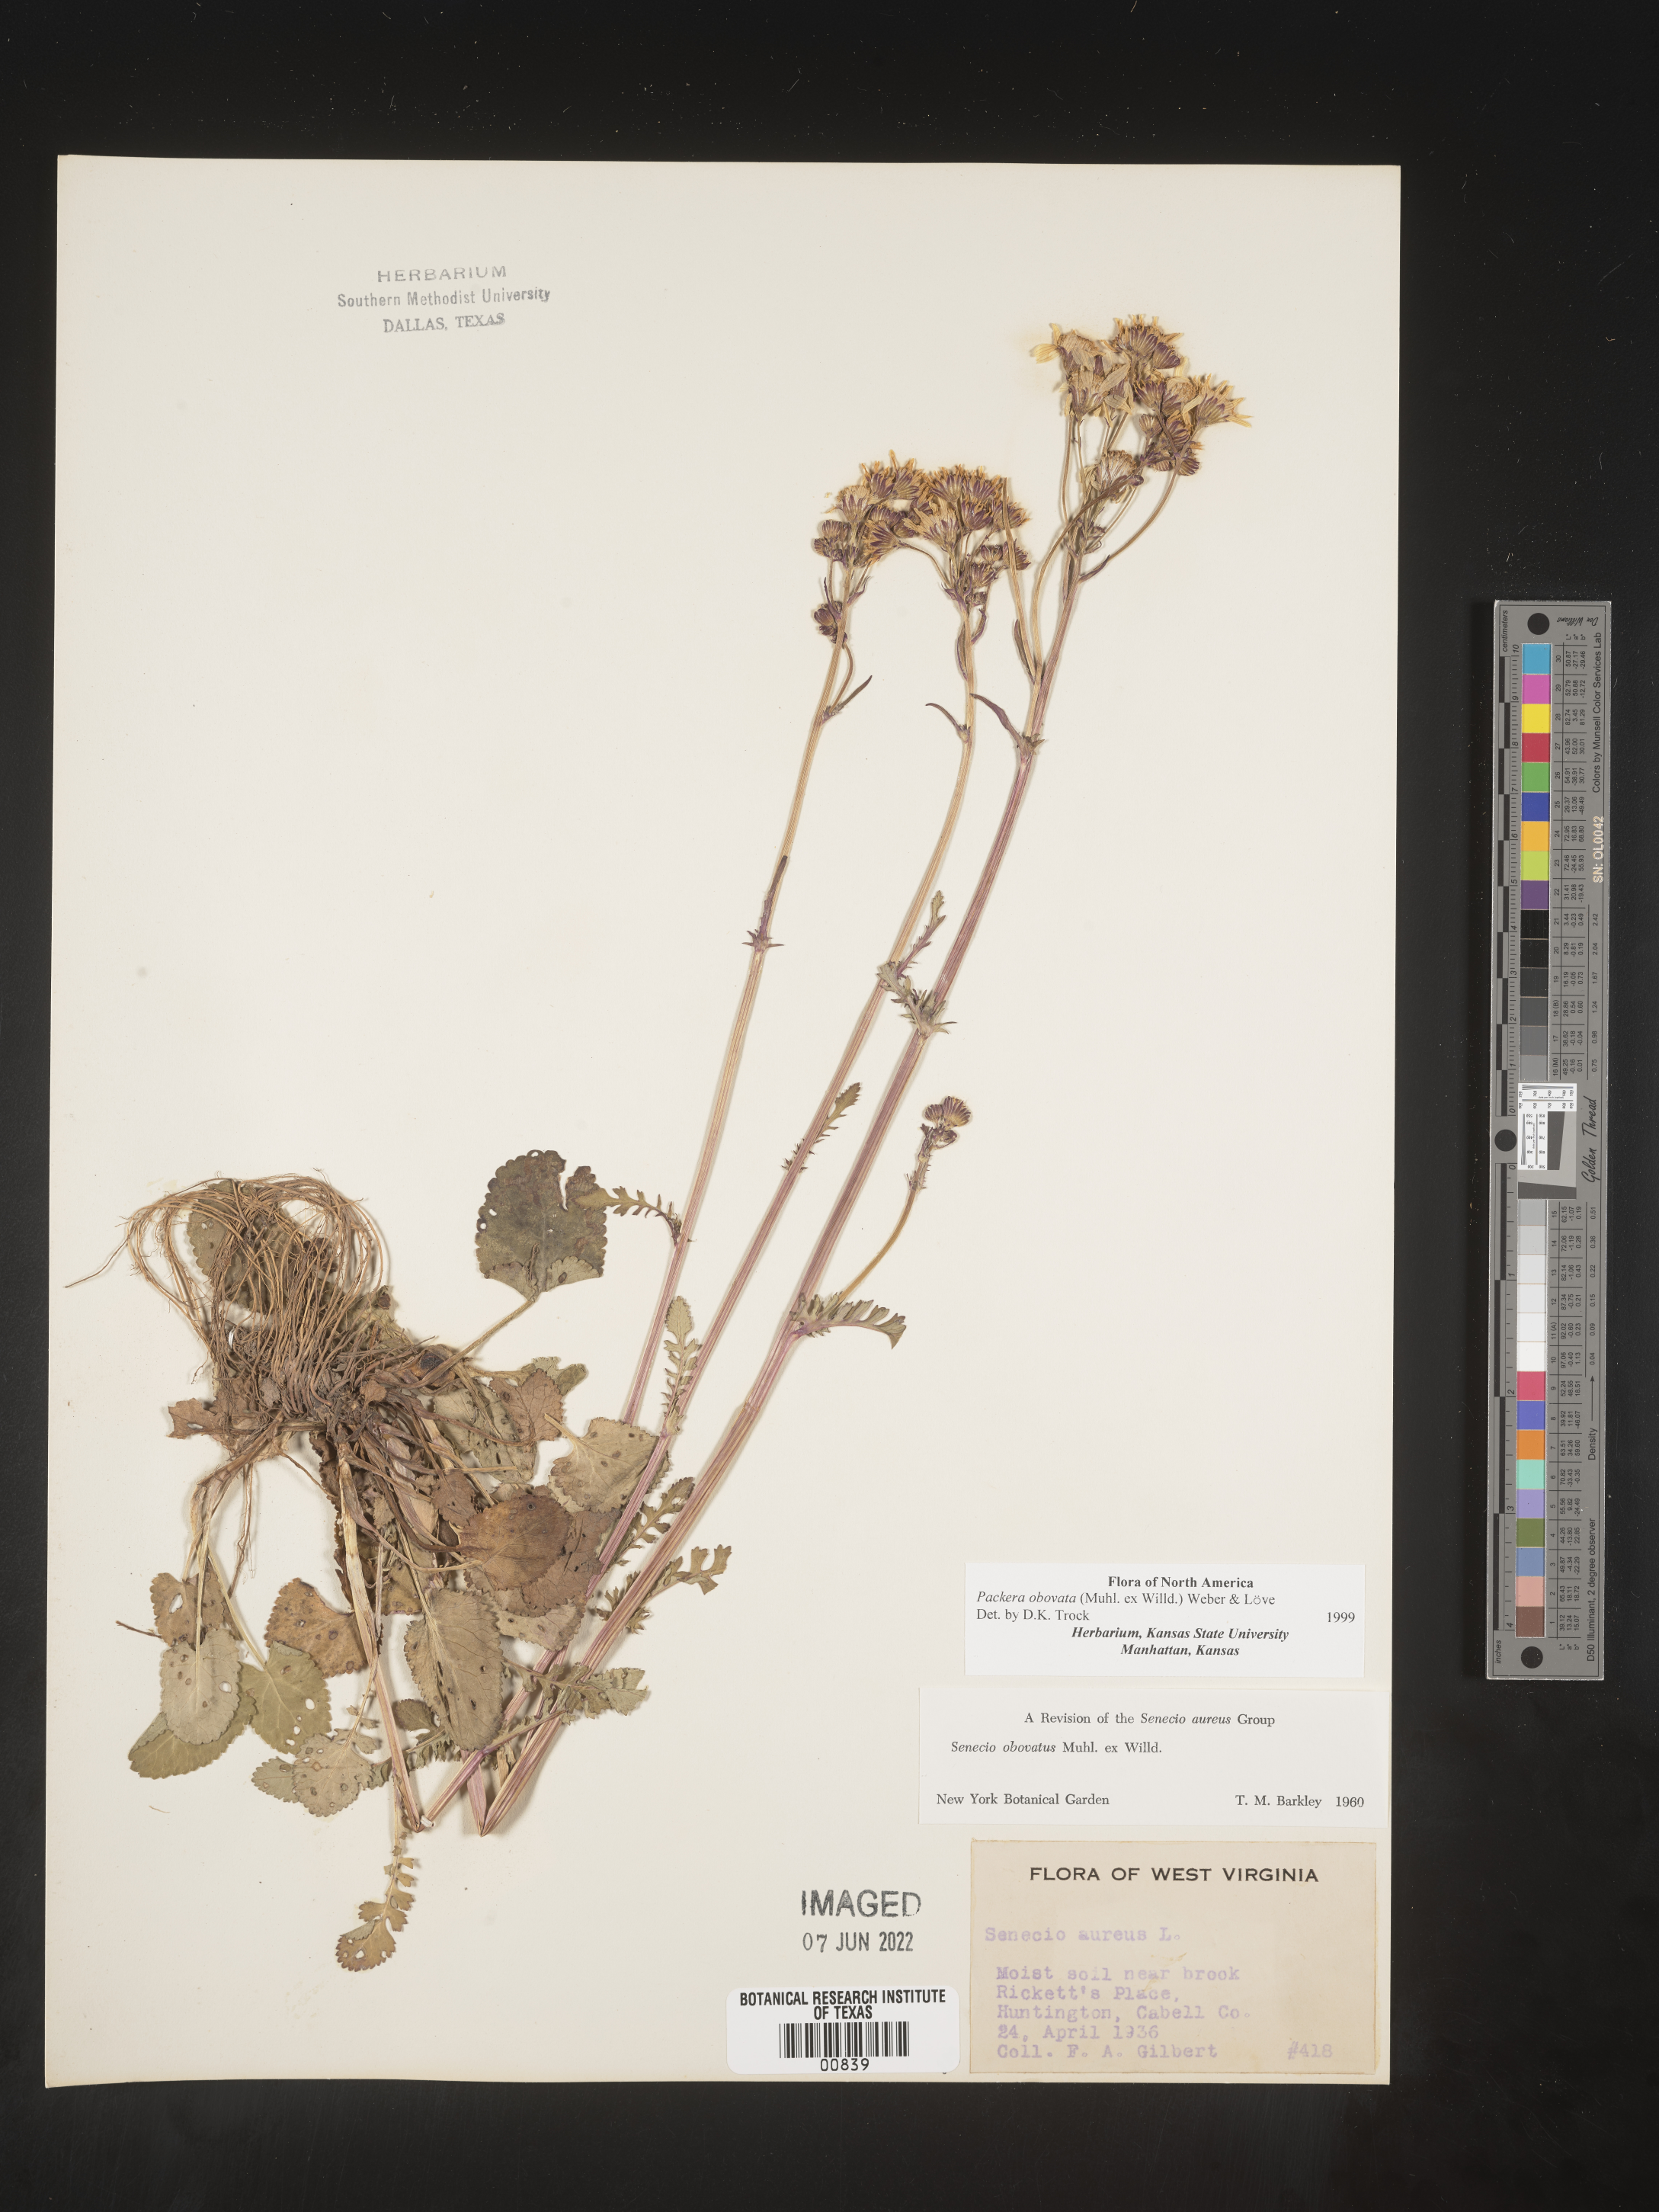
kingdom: Plantae
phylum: Tracheophyta
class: Magnoliopsida
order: Asterales
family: Asteraceae
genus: Packera
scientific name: Packera obovata
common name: Round-leaf ragwort
